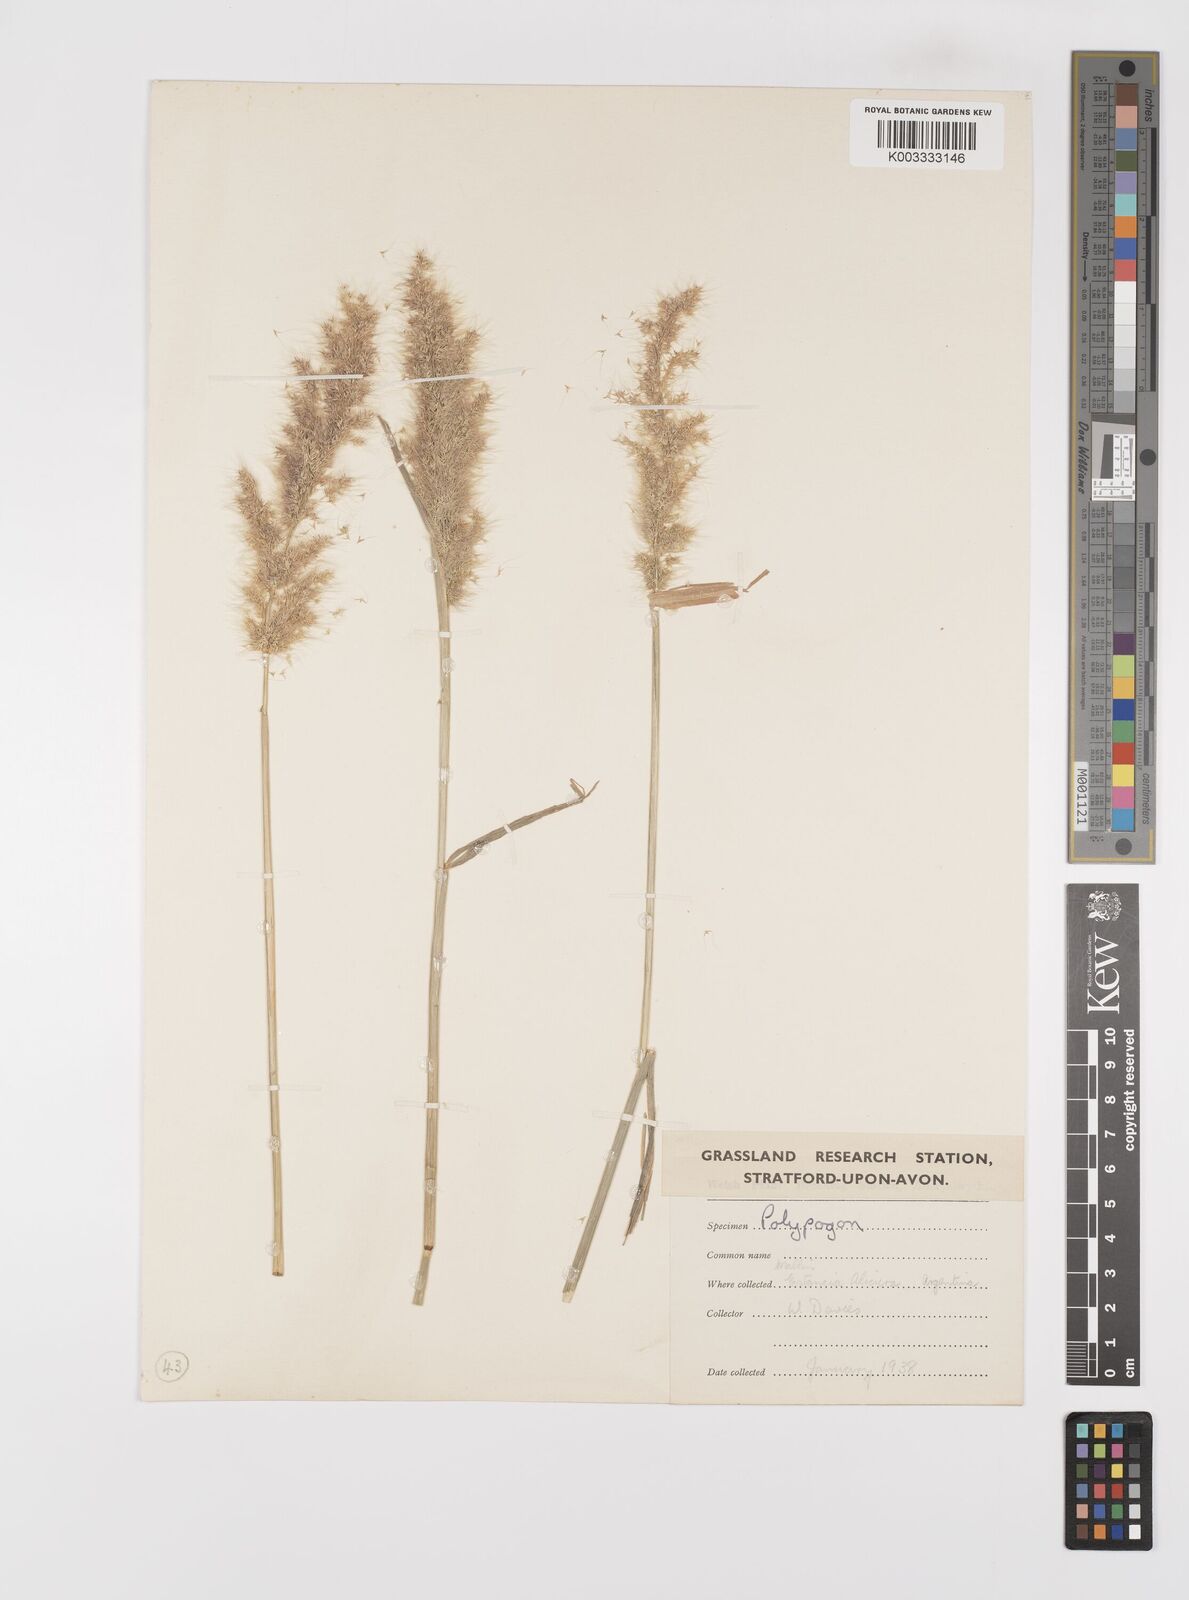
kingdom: Plantae
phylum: Tracheophyta
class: Liliopsida
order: Poales
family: Poaceae
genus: Polypogon
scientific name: Polypogon australis
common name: Chilean rabbitsfoot grass
